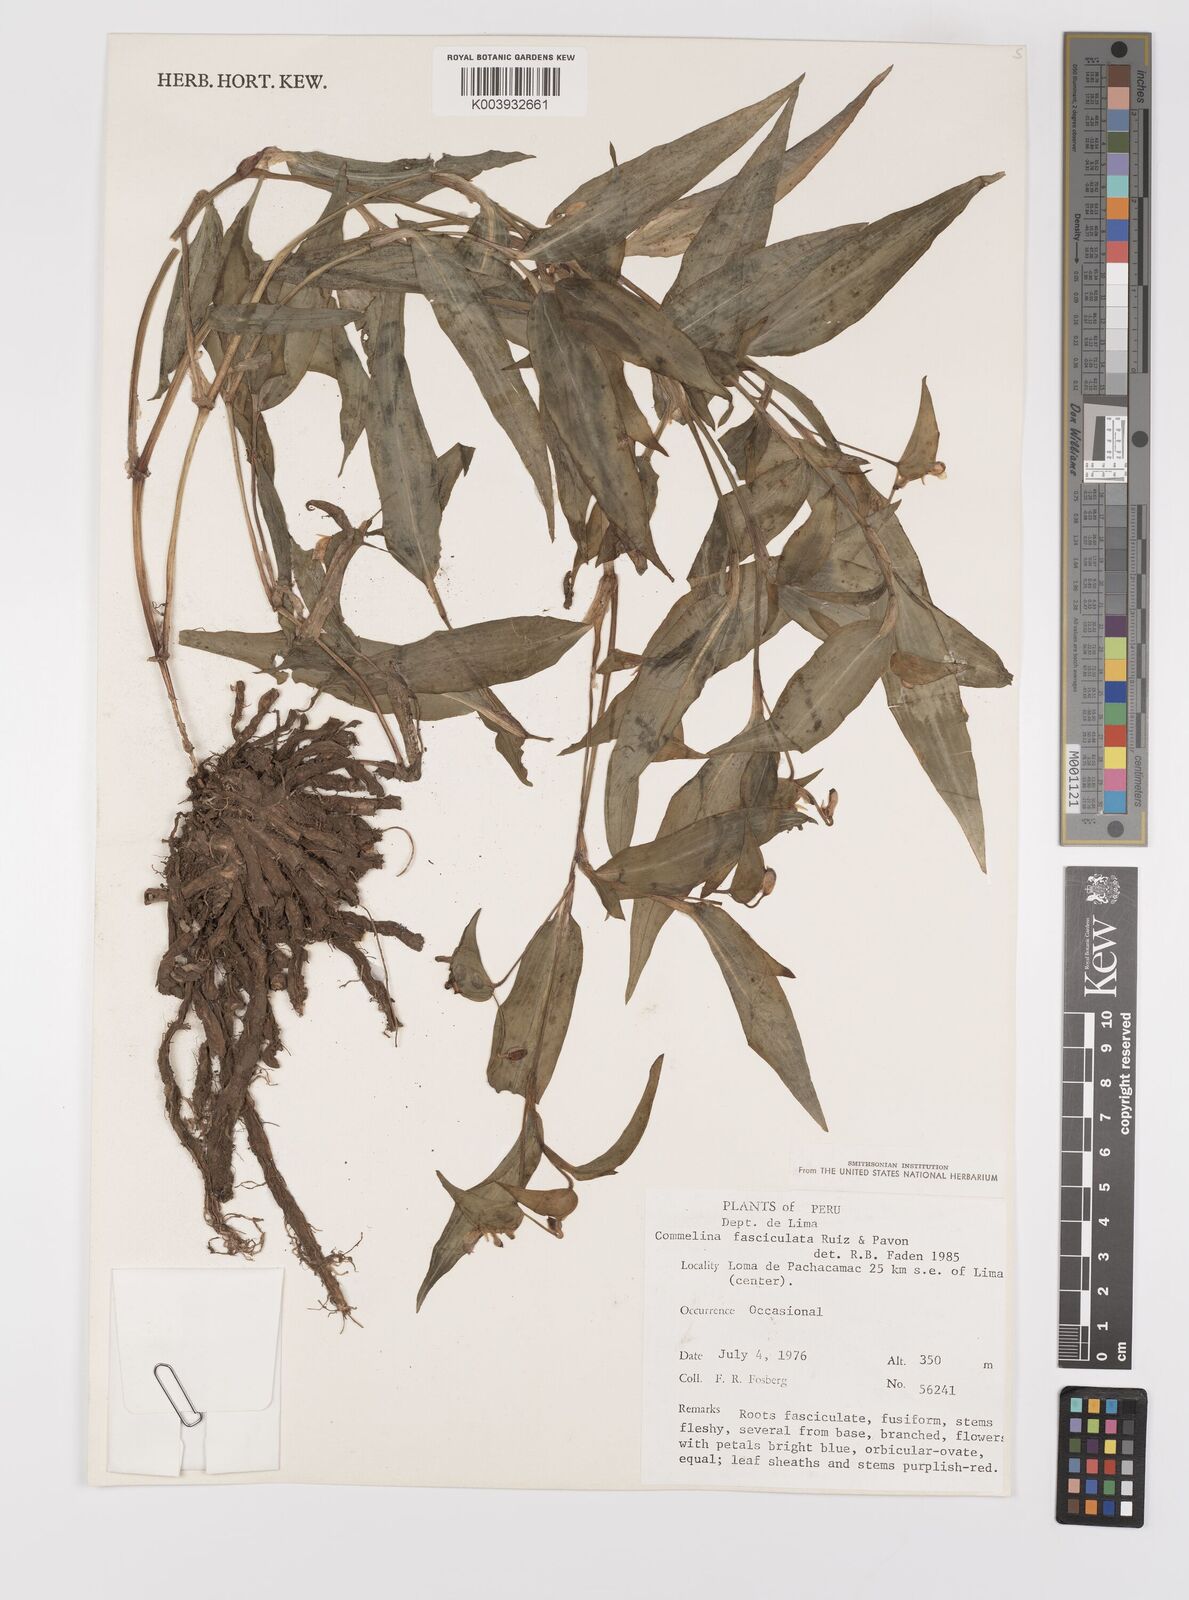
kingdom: Plantae
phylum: Tracheophyta
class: Liliopsida
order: Commelinales
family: Commelinaceae
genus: Commelina
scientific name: Commelina tuberosa
